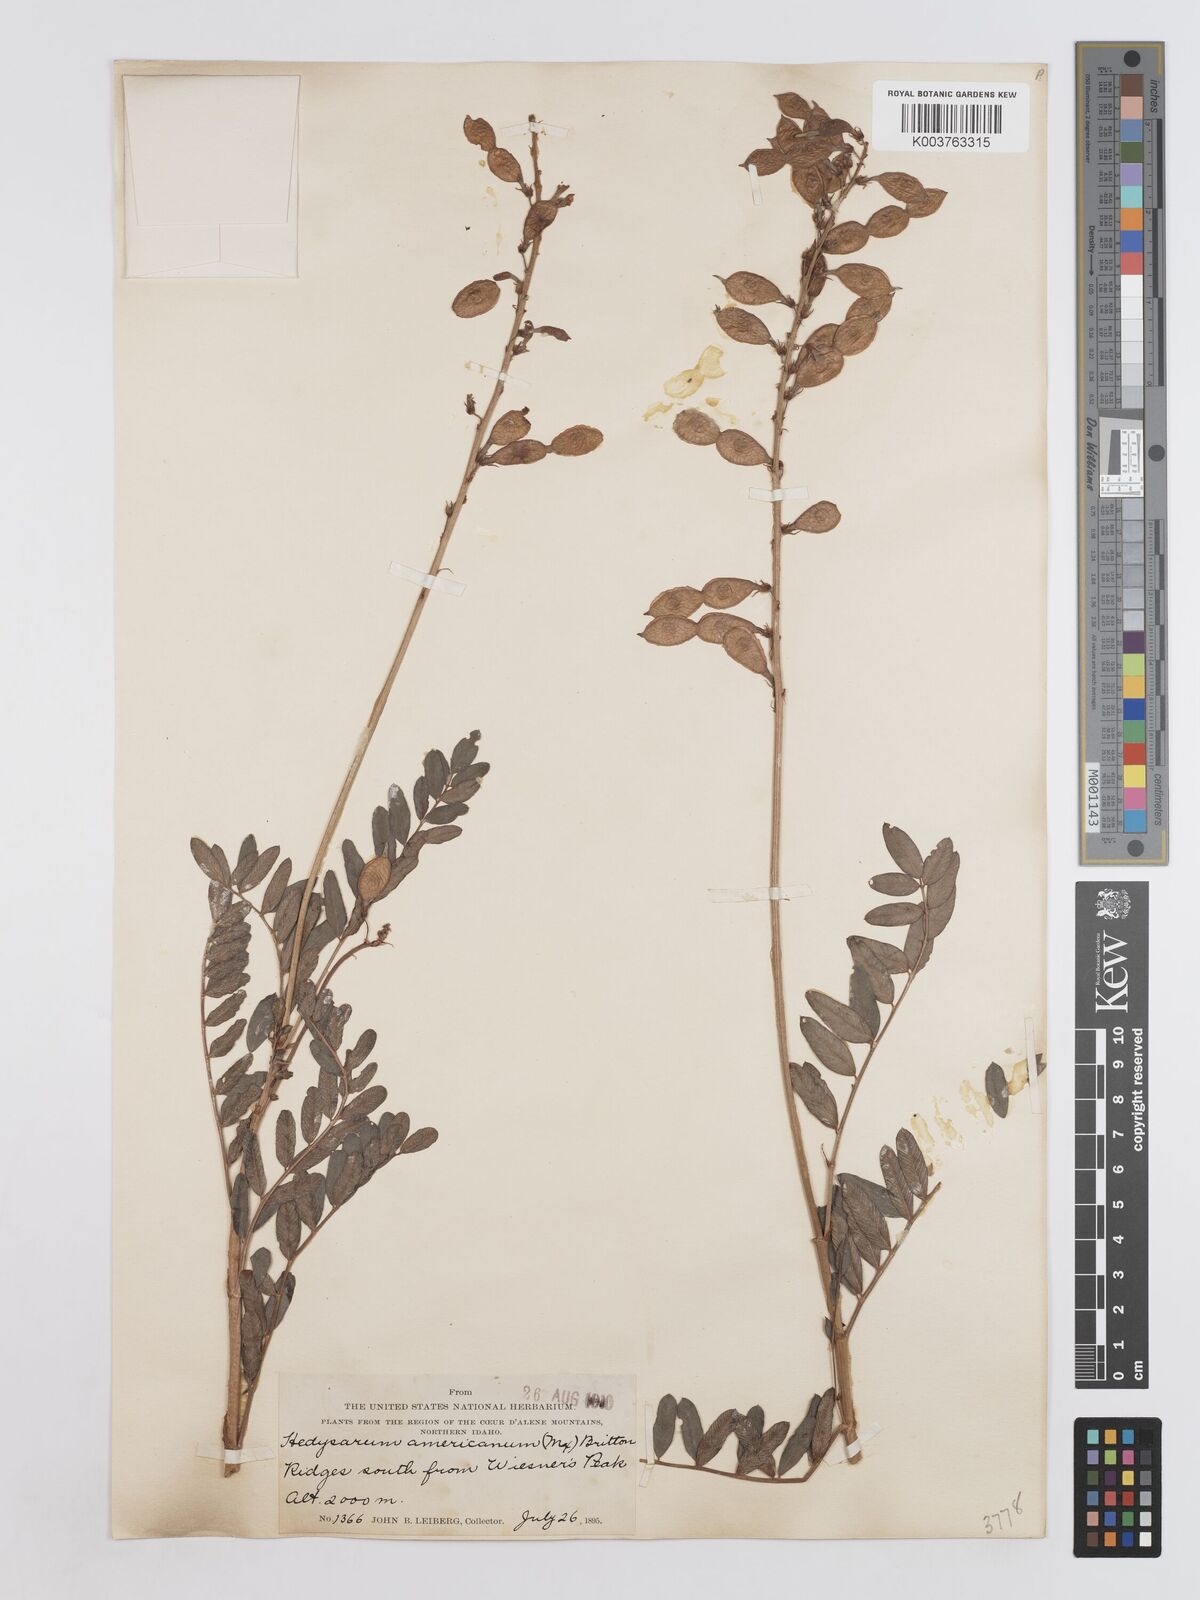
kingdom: Plantae
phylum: Tracheophyta
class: Magnoliopsida
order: Fabales
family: Fabaceae
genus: Hedysarum
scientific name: Hedysarum alpinum
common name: Alpine sweet-vetch
